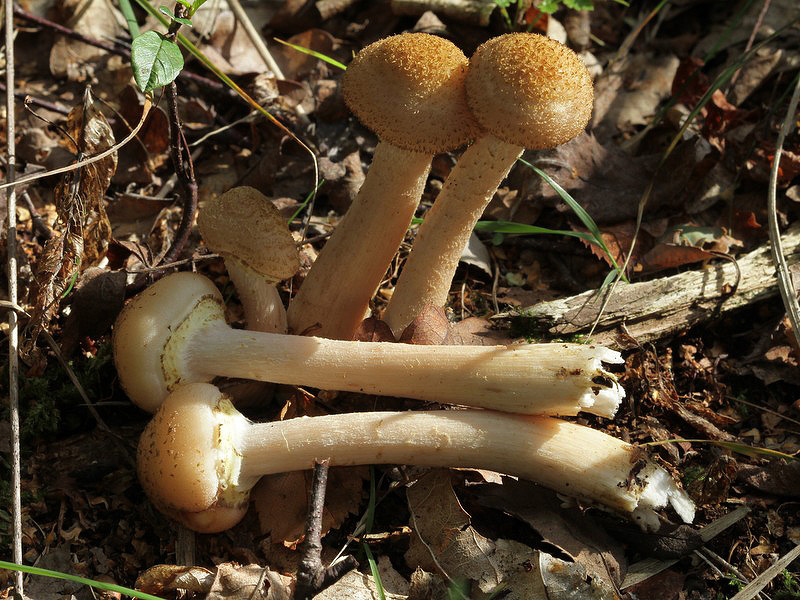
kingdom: Fungi
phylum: Basidiomycota
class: Agaricomycetes
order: Agaricales
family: Physalacriaceae
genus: Armillaria
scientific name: Armillaria lutea
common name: køllestokket honningsvamp
